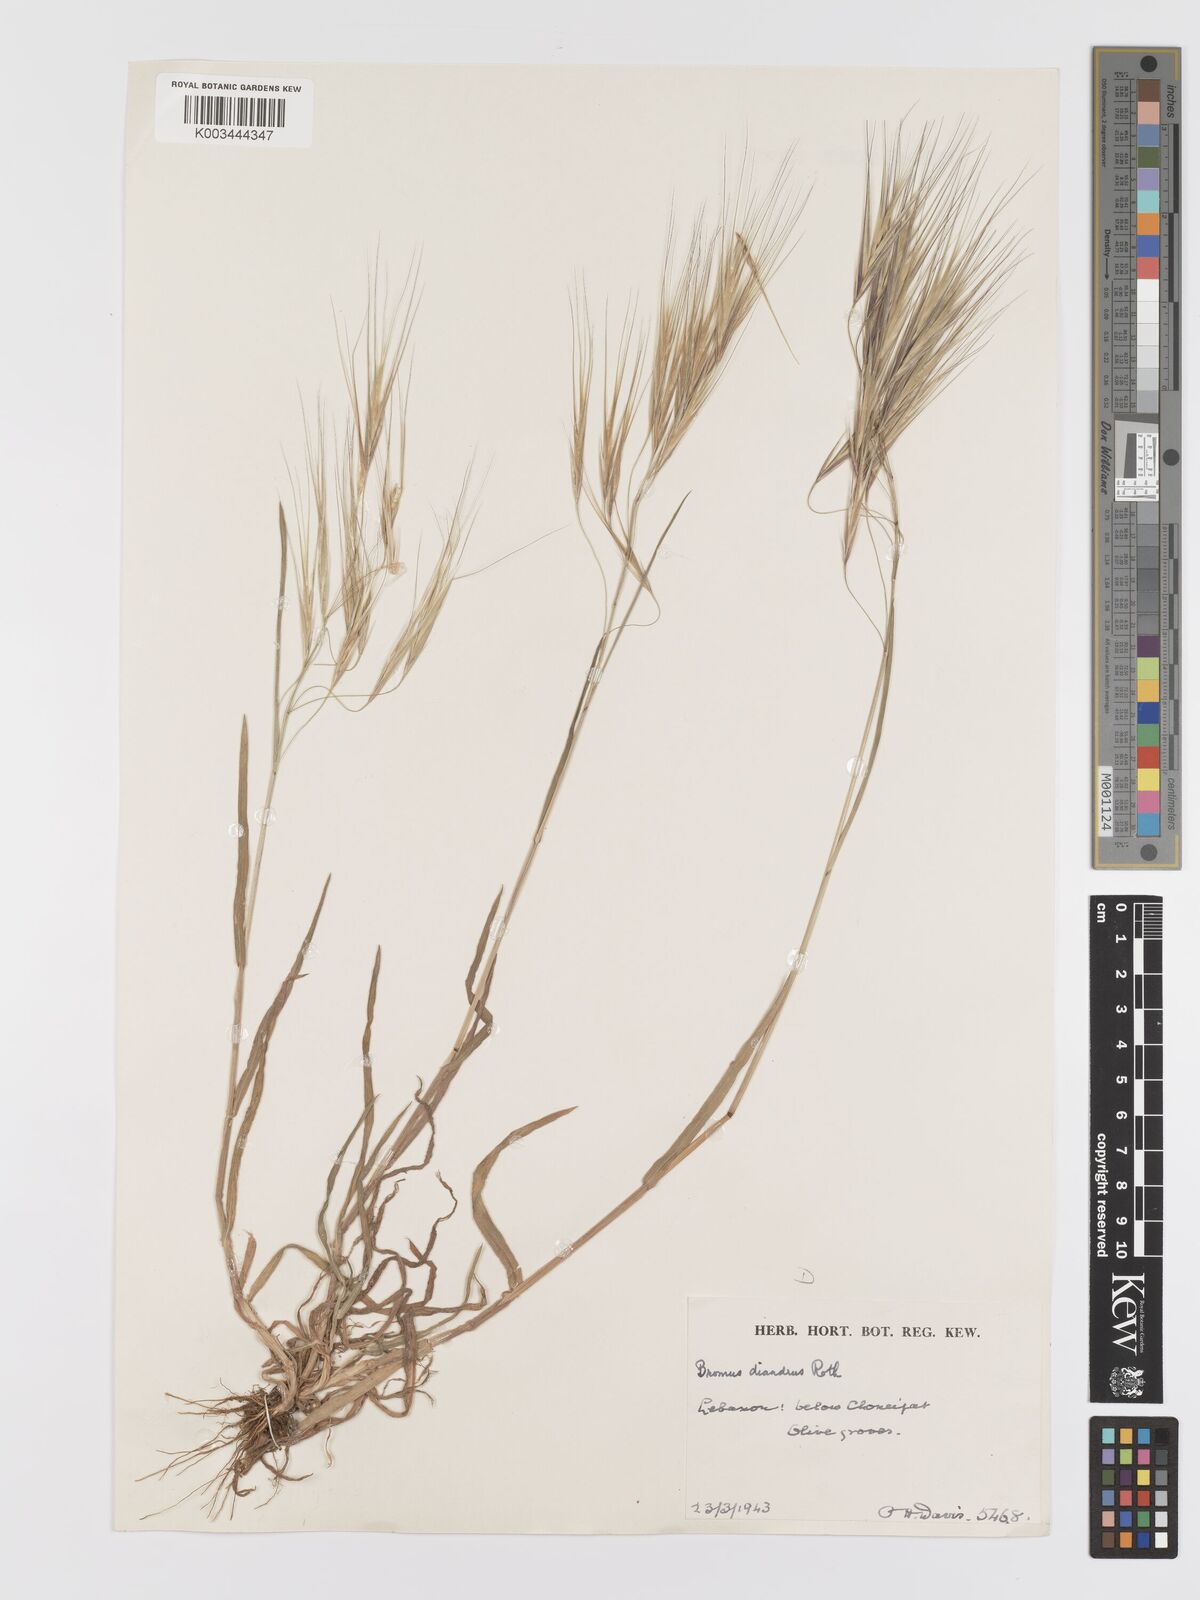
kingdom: Plantae
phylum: Tracheophyta
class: Liliopsida
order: Poales
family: Poaceae
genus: Bromus
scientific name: Bromus diandrus
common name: Ripgut brome
